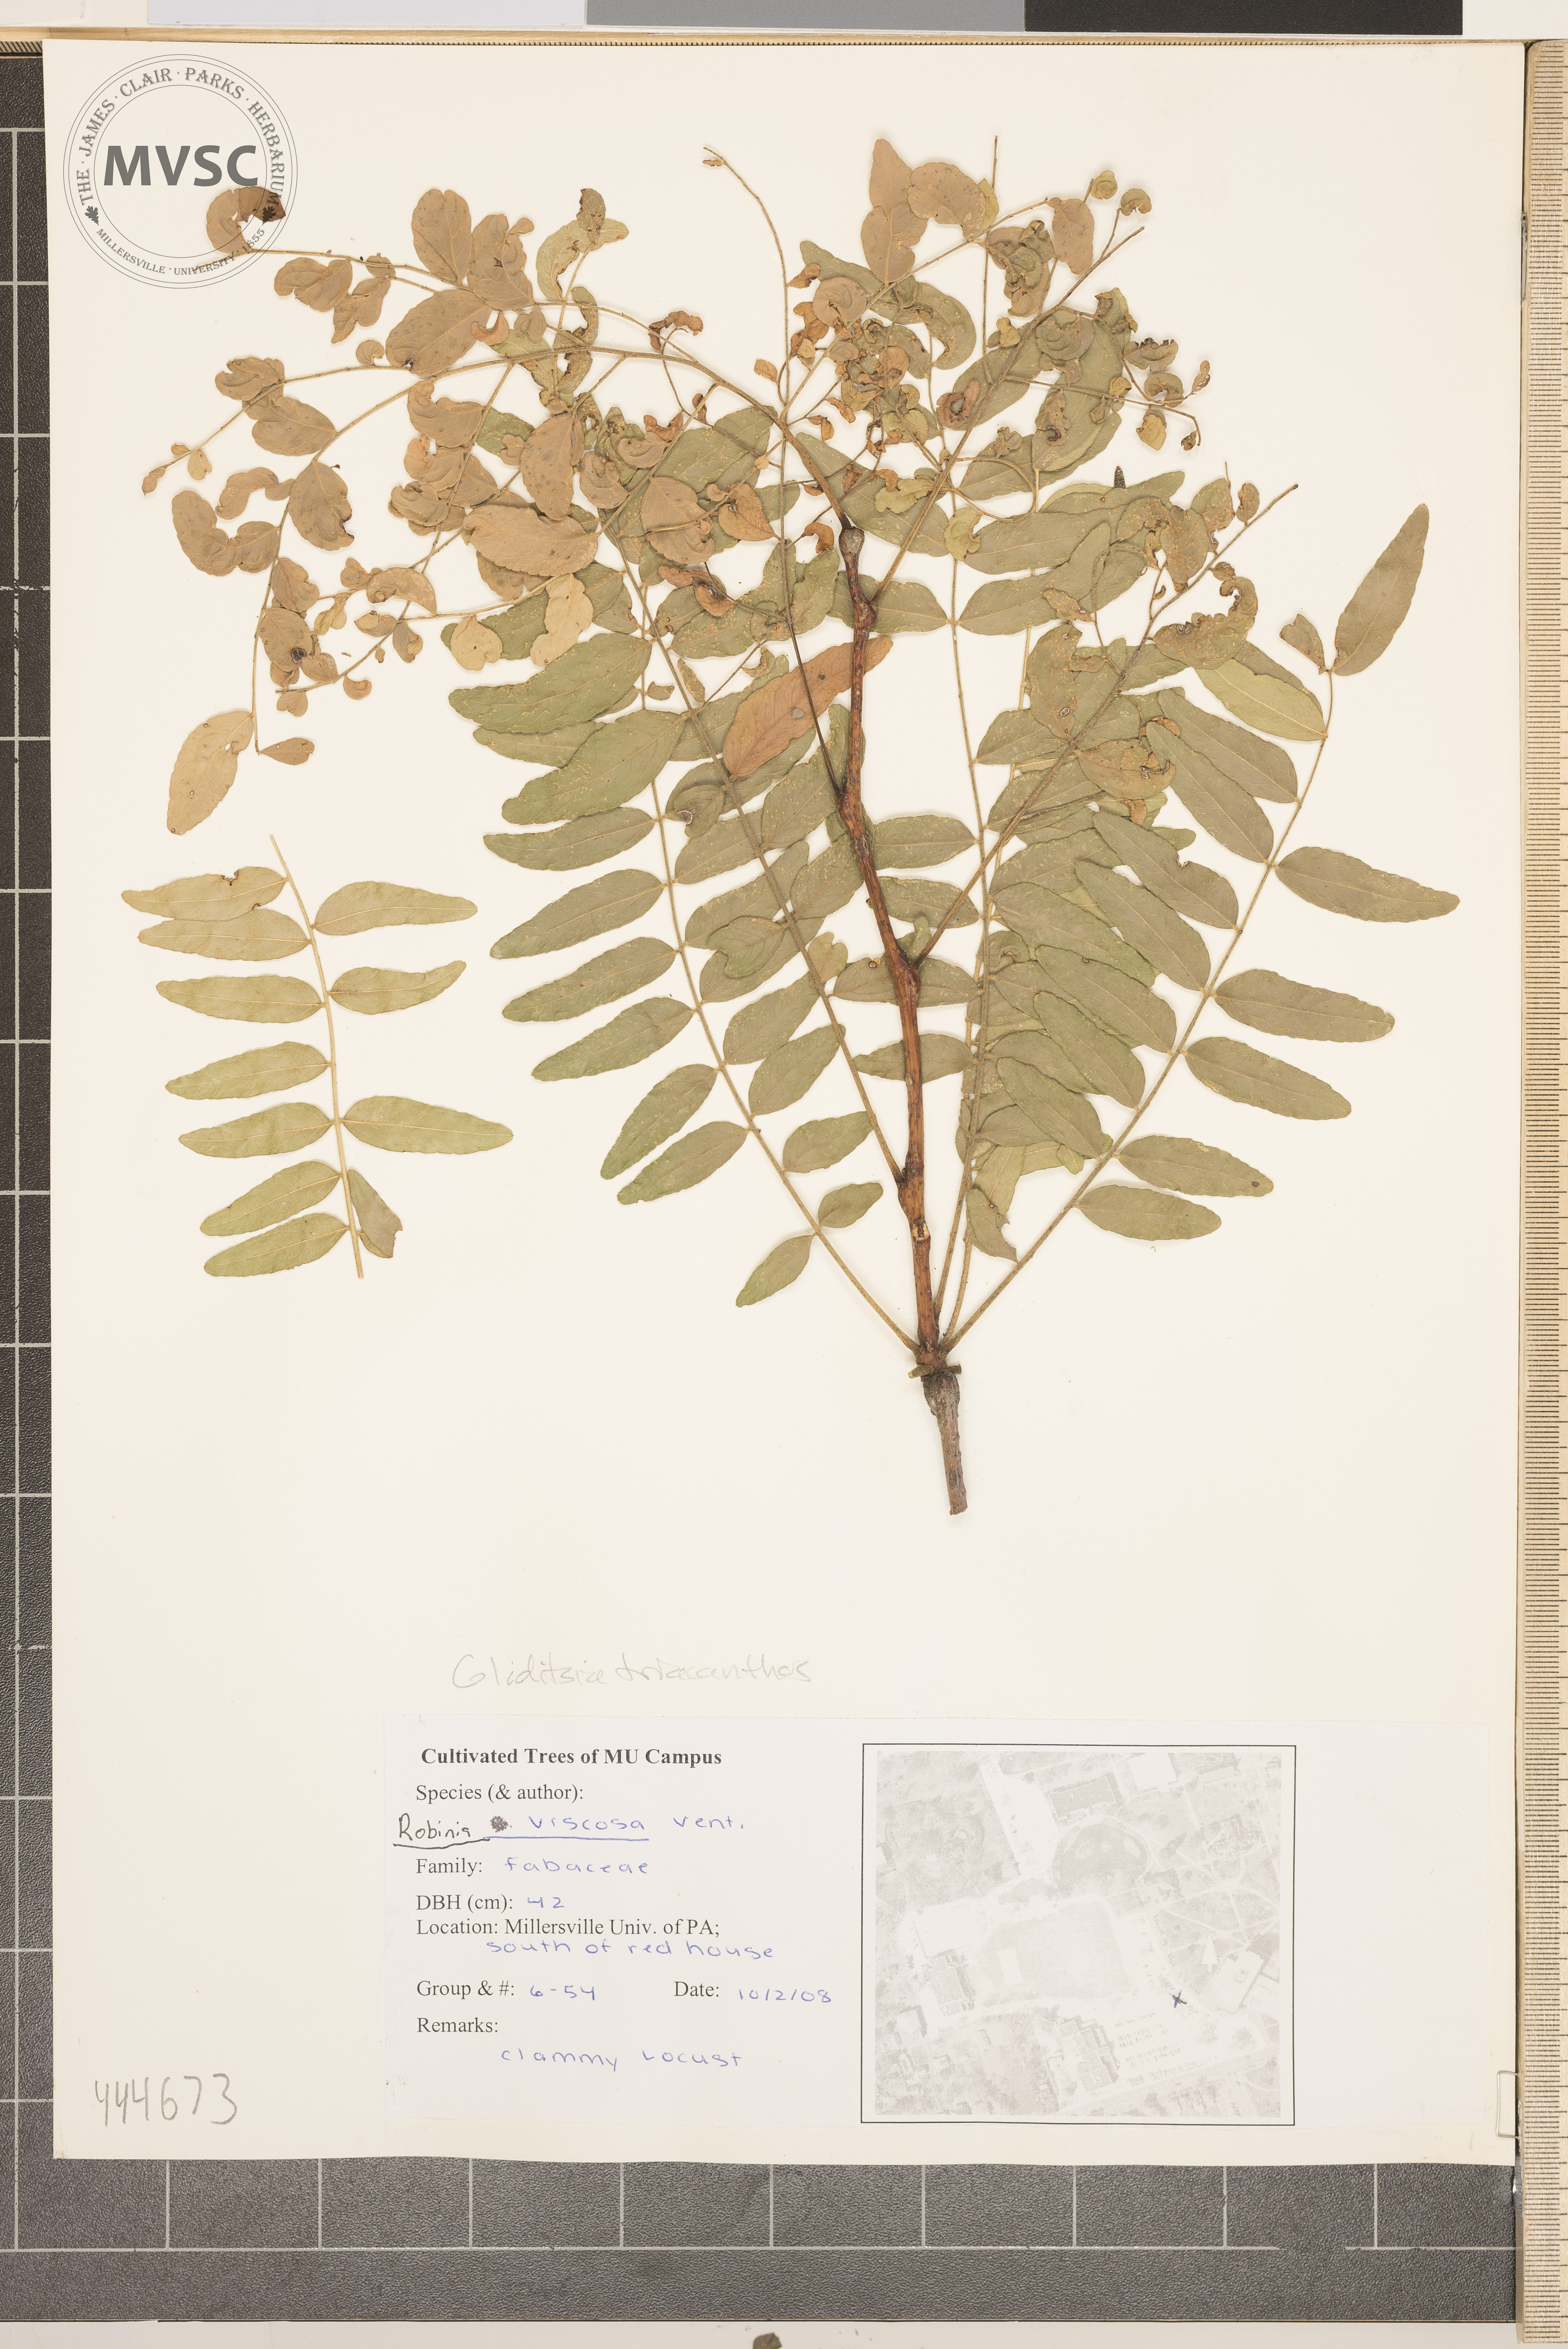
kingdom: Plantae
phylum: Tracheophyta
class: Magnoliopsida
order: Fabales
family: Fabaceae
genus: Gleditsia
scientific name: Gleditsia triacanthos
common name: Common honeylocust
